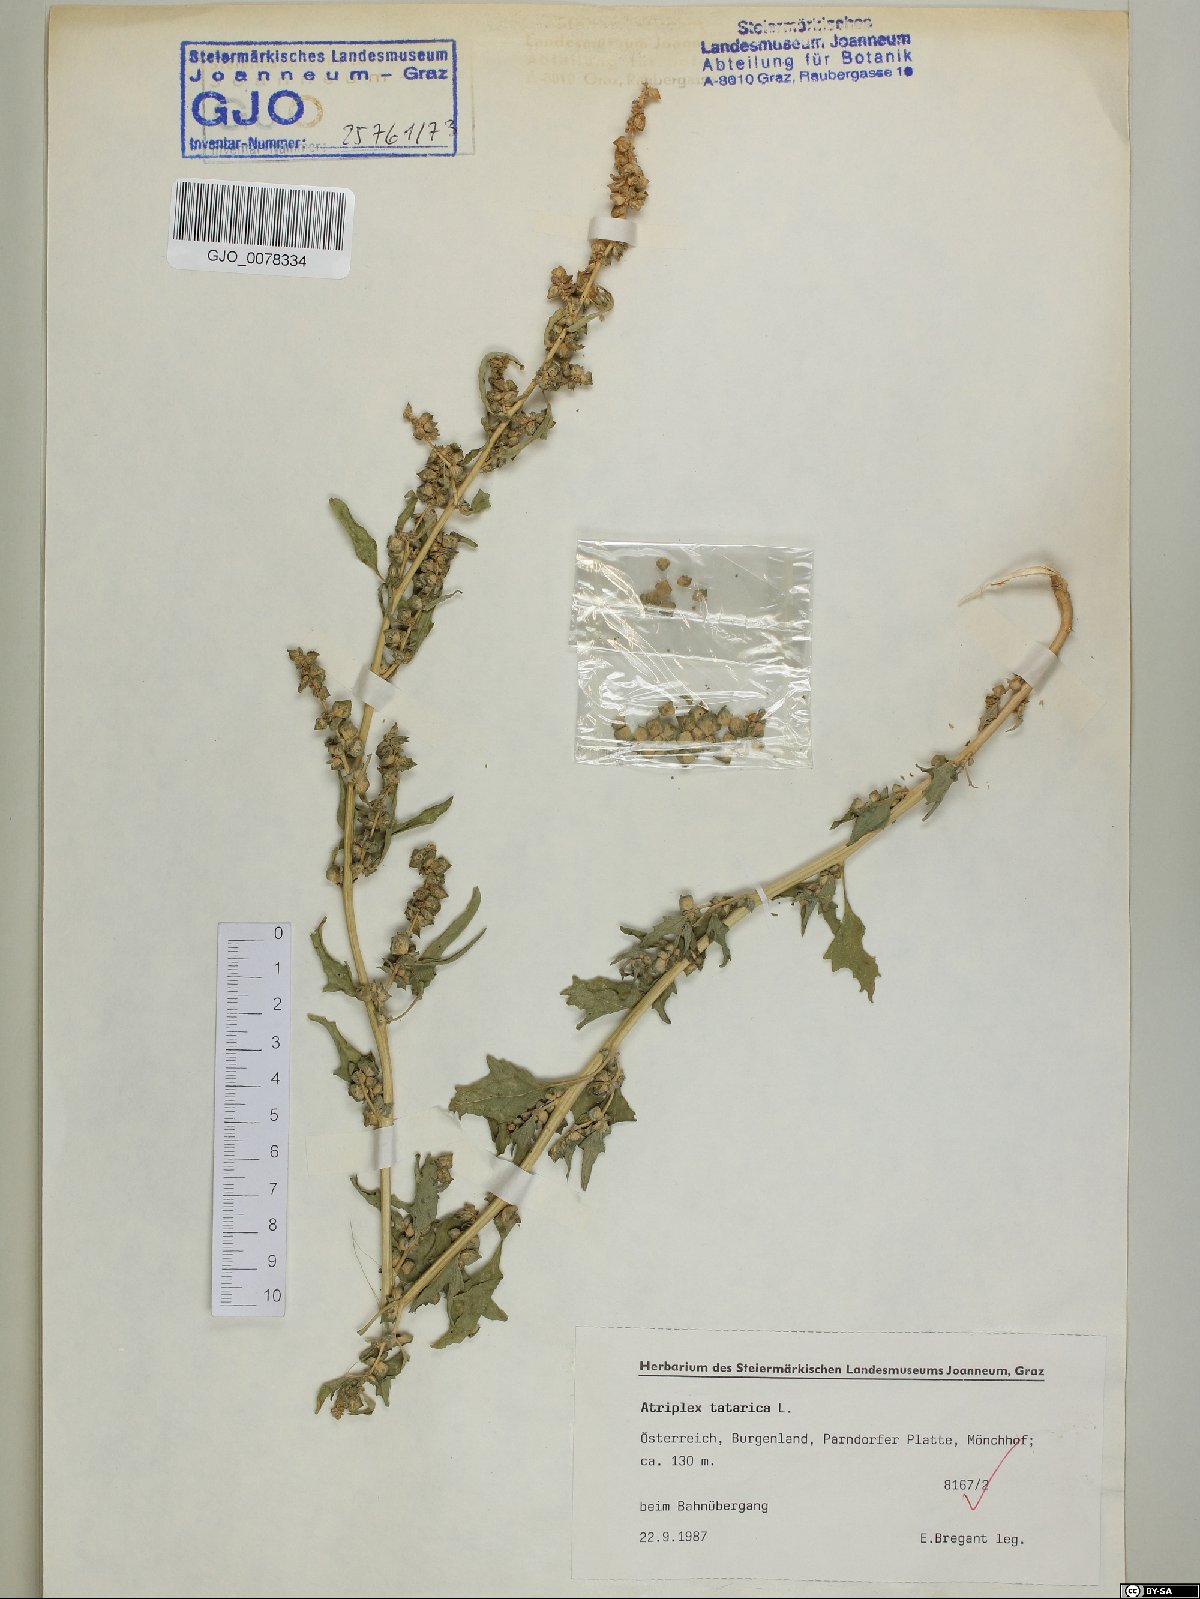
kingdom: Plantae
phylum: Tracheophyta
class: Magnoliopsida
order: Caryophyllales
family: Amaranthaceae
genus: Atriplex
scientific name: Atriplex tatarica
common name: Tatarian orache
